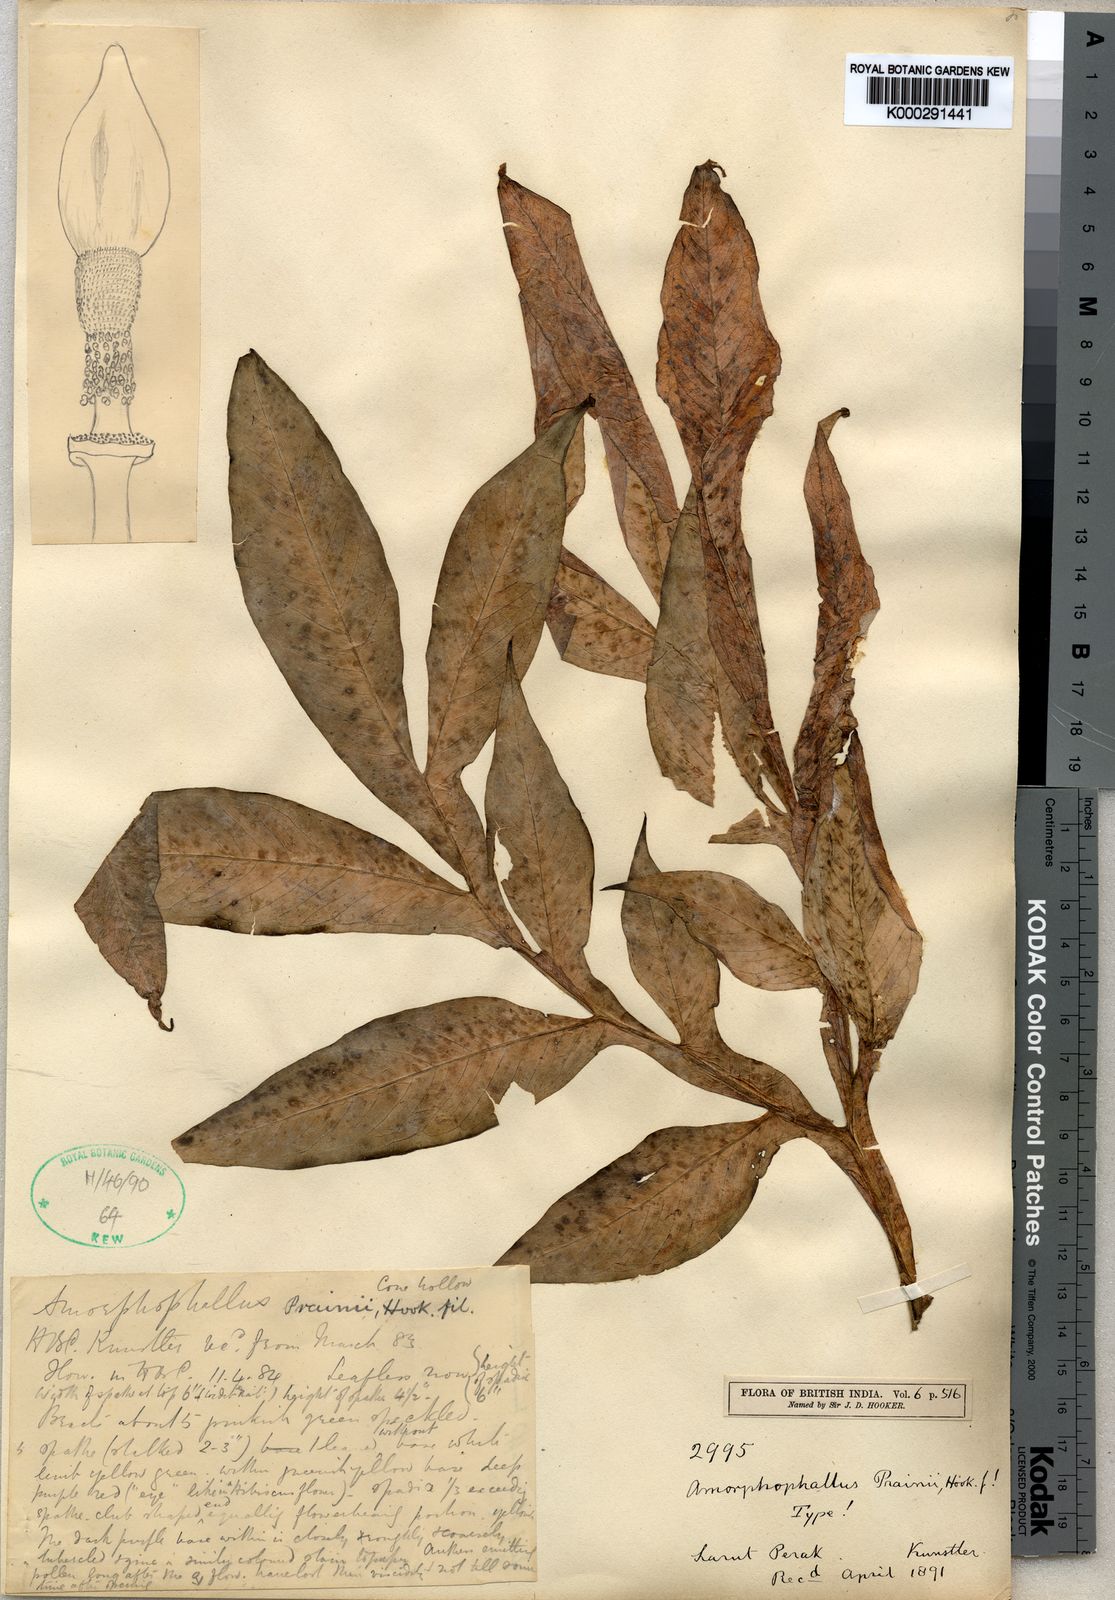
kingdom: Plantae
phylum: Tracheophyta
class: Liliopsida
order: Alismatales
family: Araceae
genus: Amorphophallus
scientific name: Amorphophallus prainii
